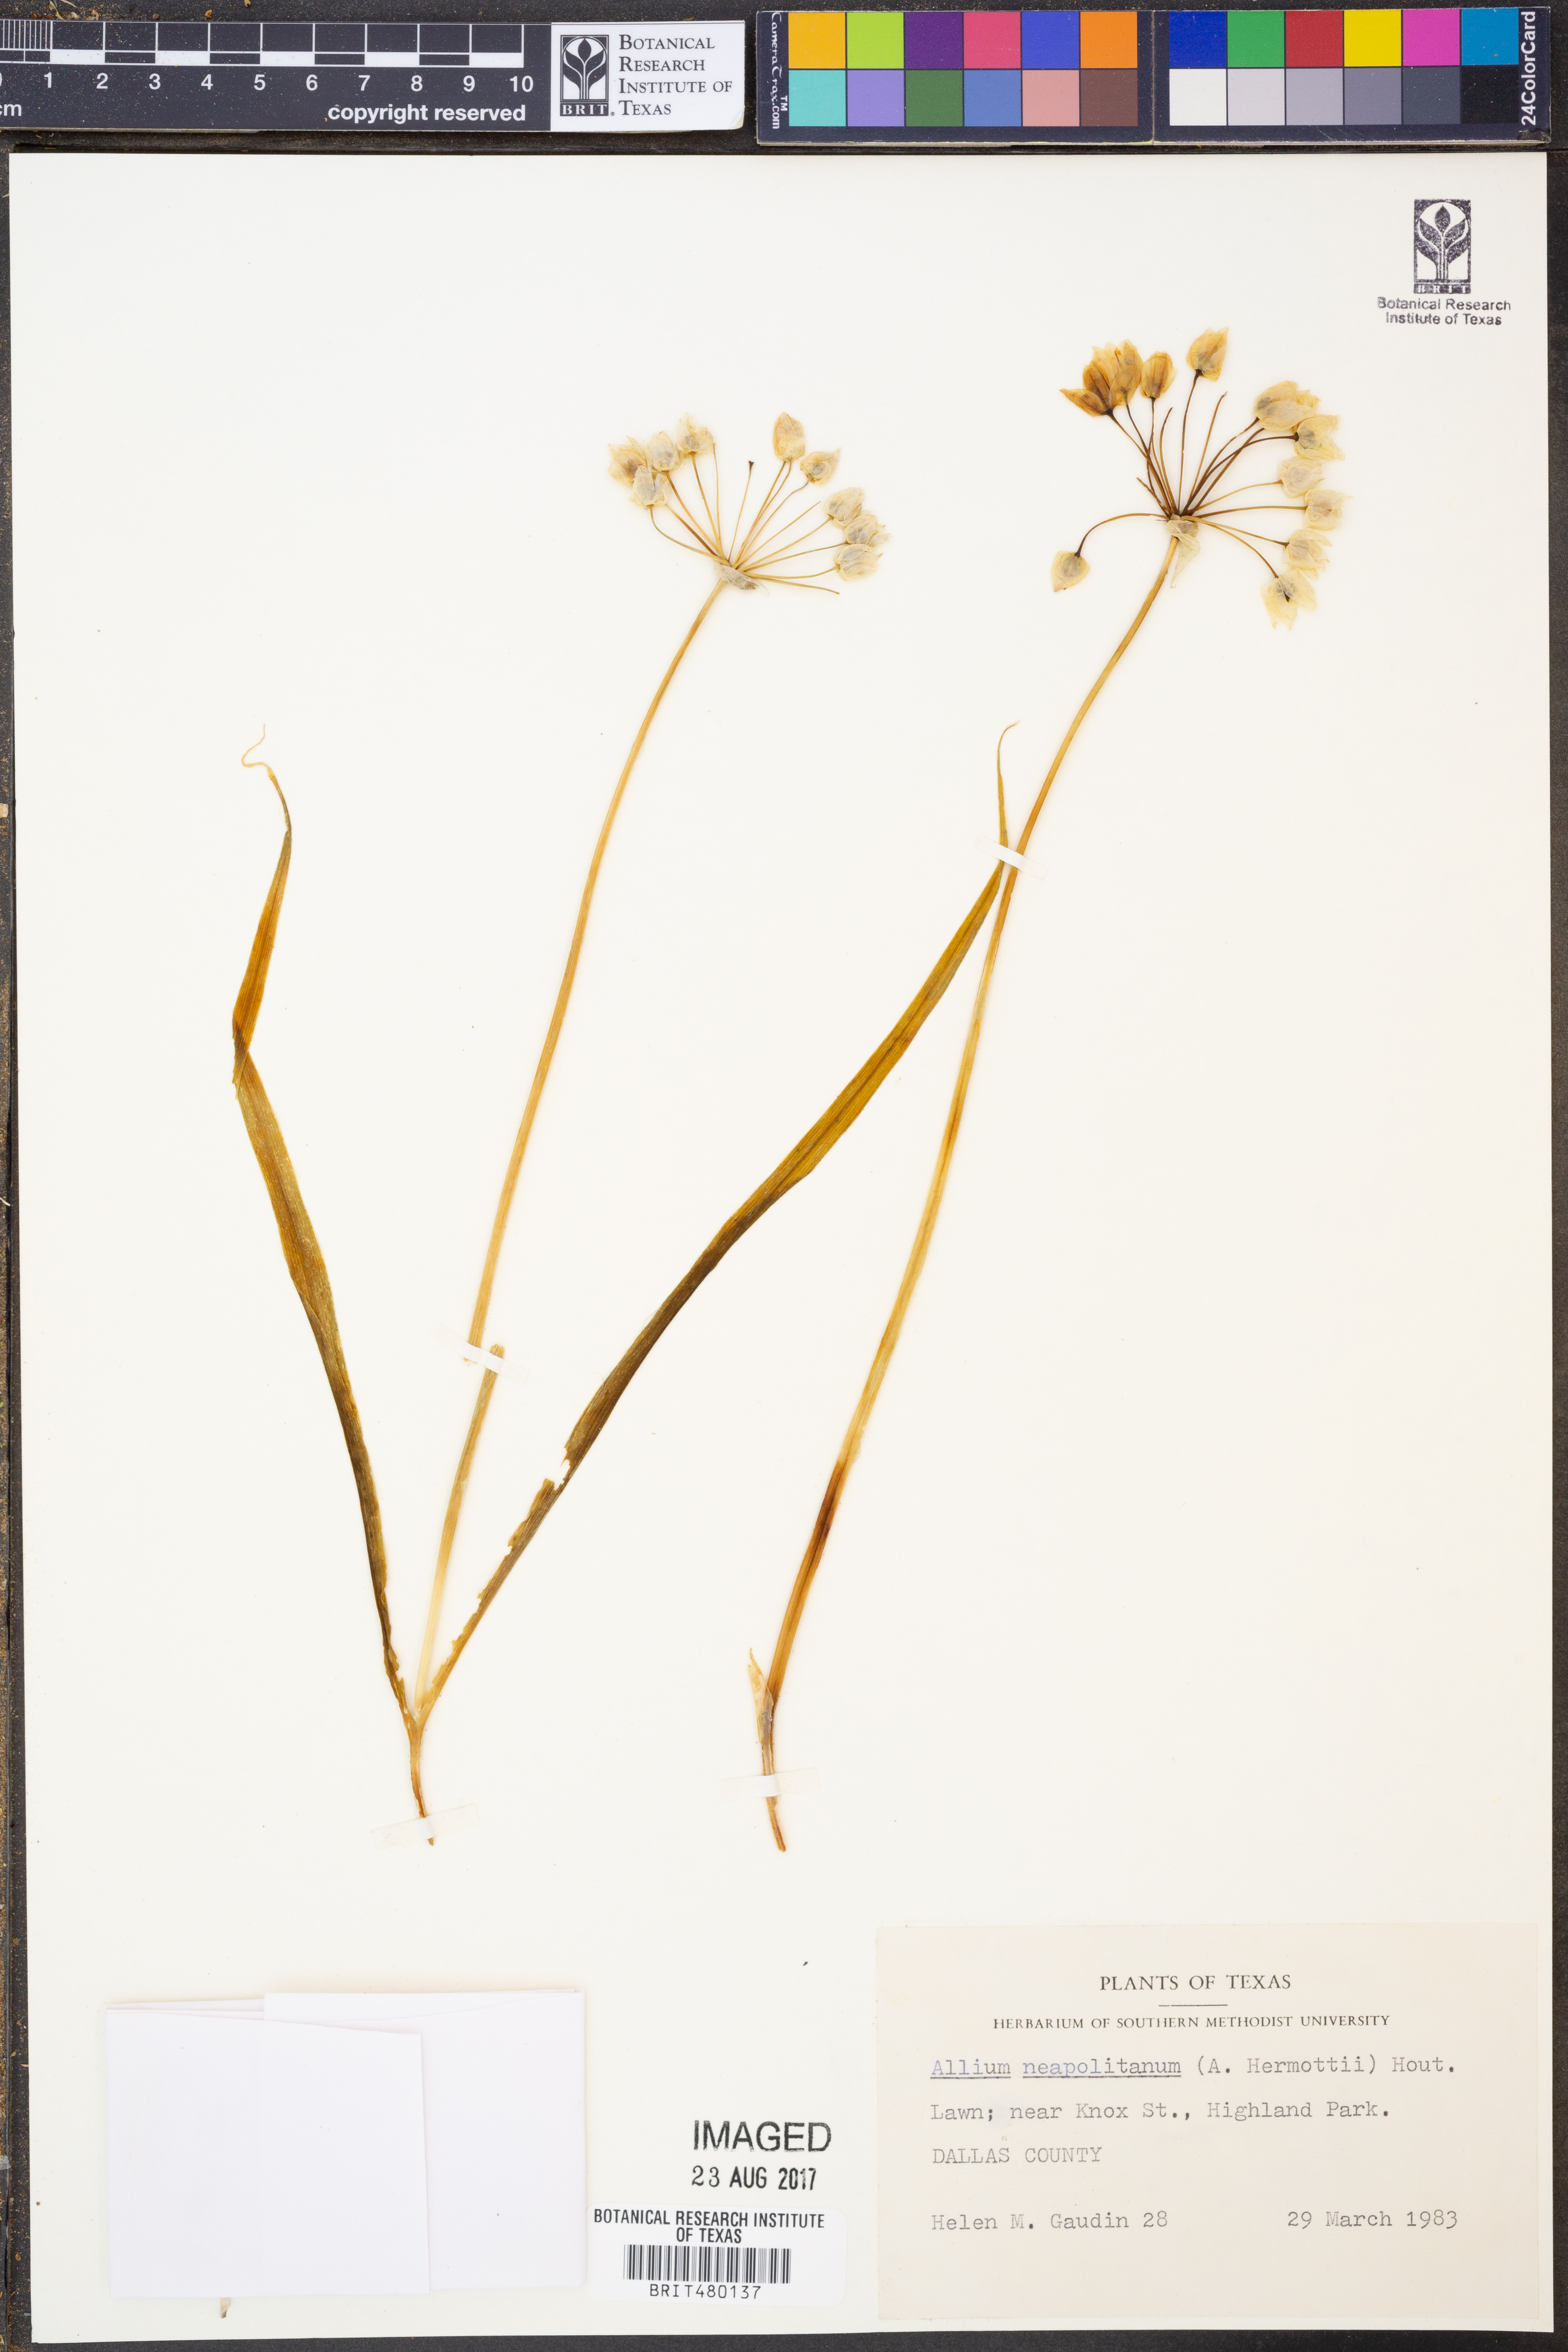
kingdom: Plantae
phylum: Tracheophyta
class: Liliopsida
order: Asparagales
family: Amaryllidaceae
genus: Allium
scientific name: Allium neapolitanum
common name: Neapolitan garlic
